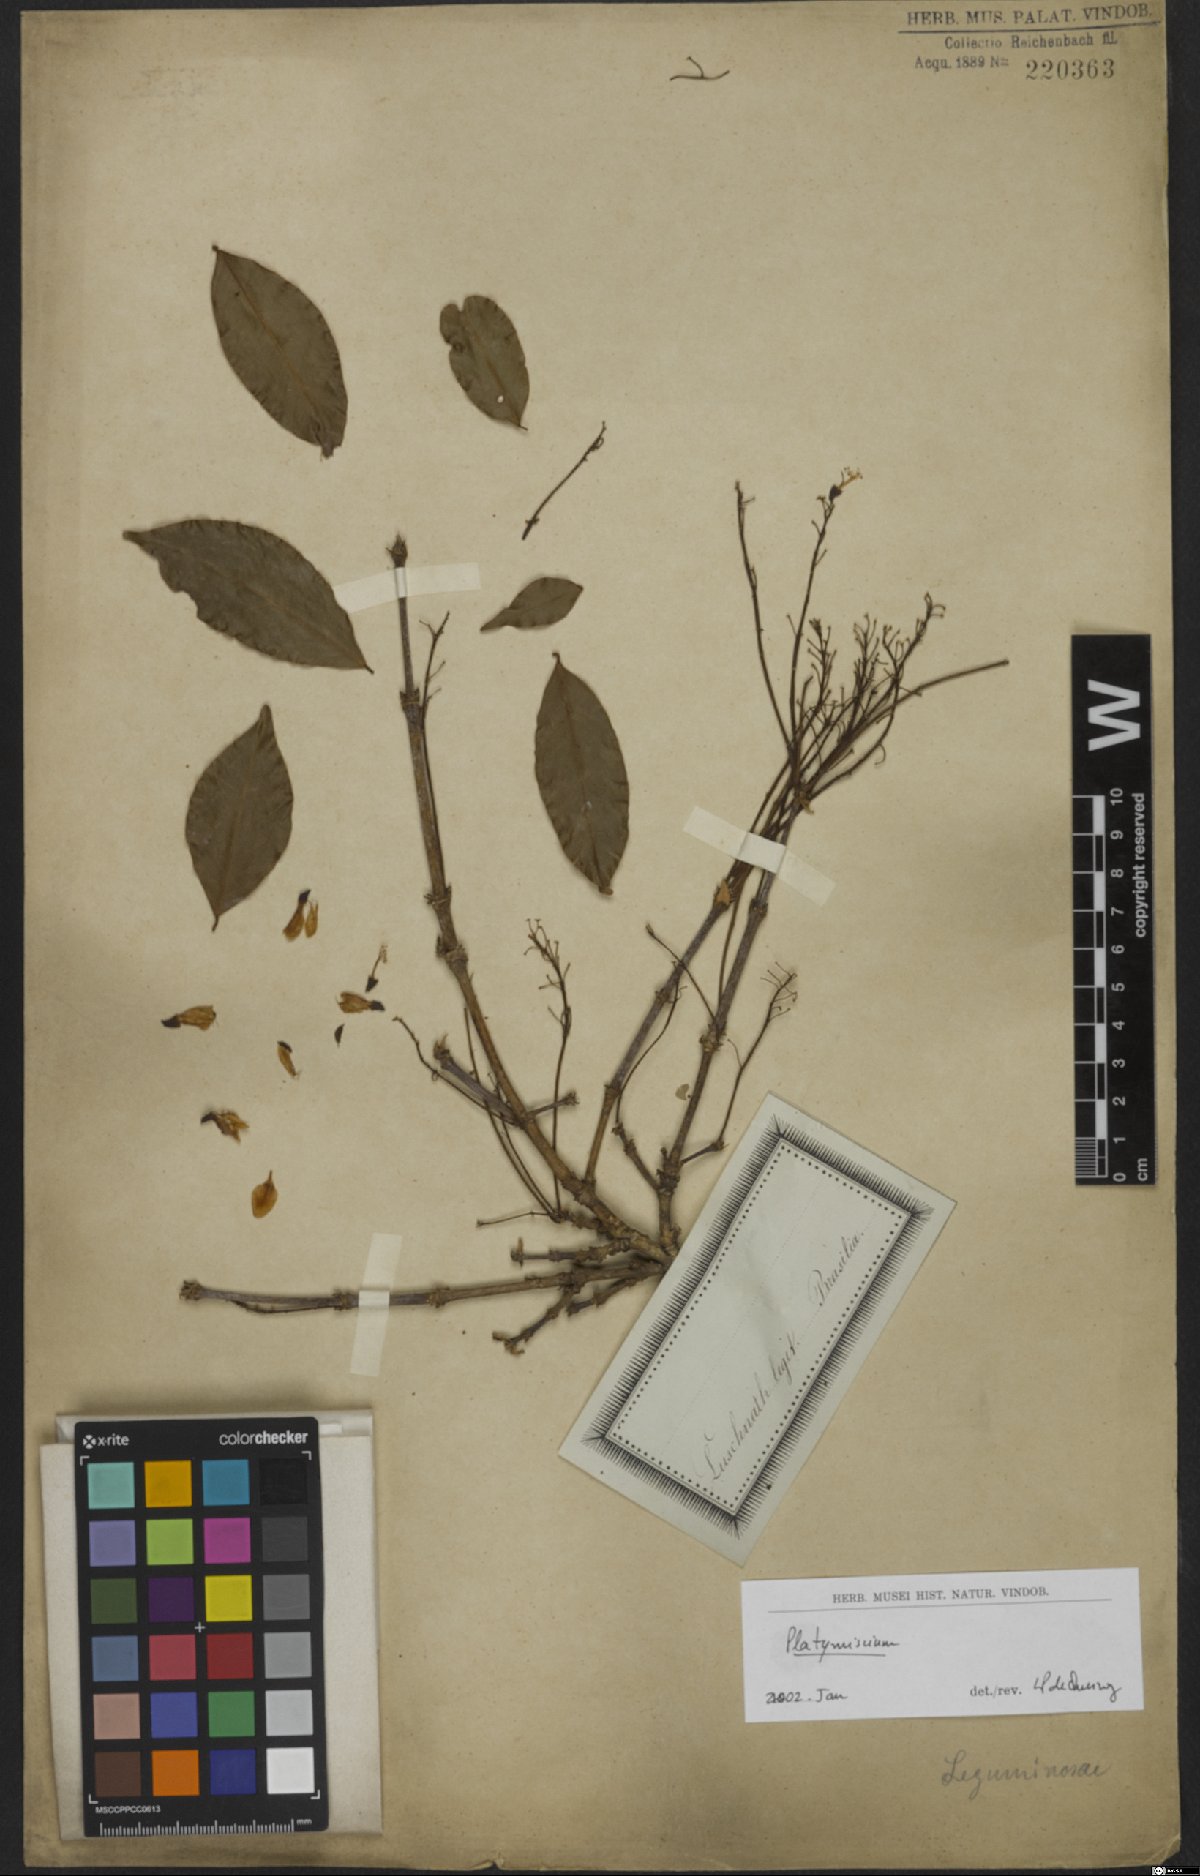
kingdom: Plantae
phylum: Tracheophyta
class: Magnoliopsida
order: Fabales
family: Fabaceae
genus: Platymiscium
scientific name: Platymiscium
